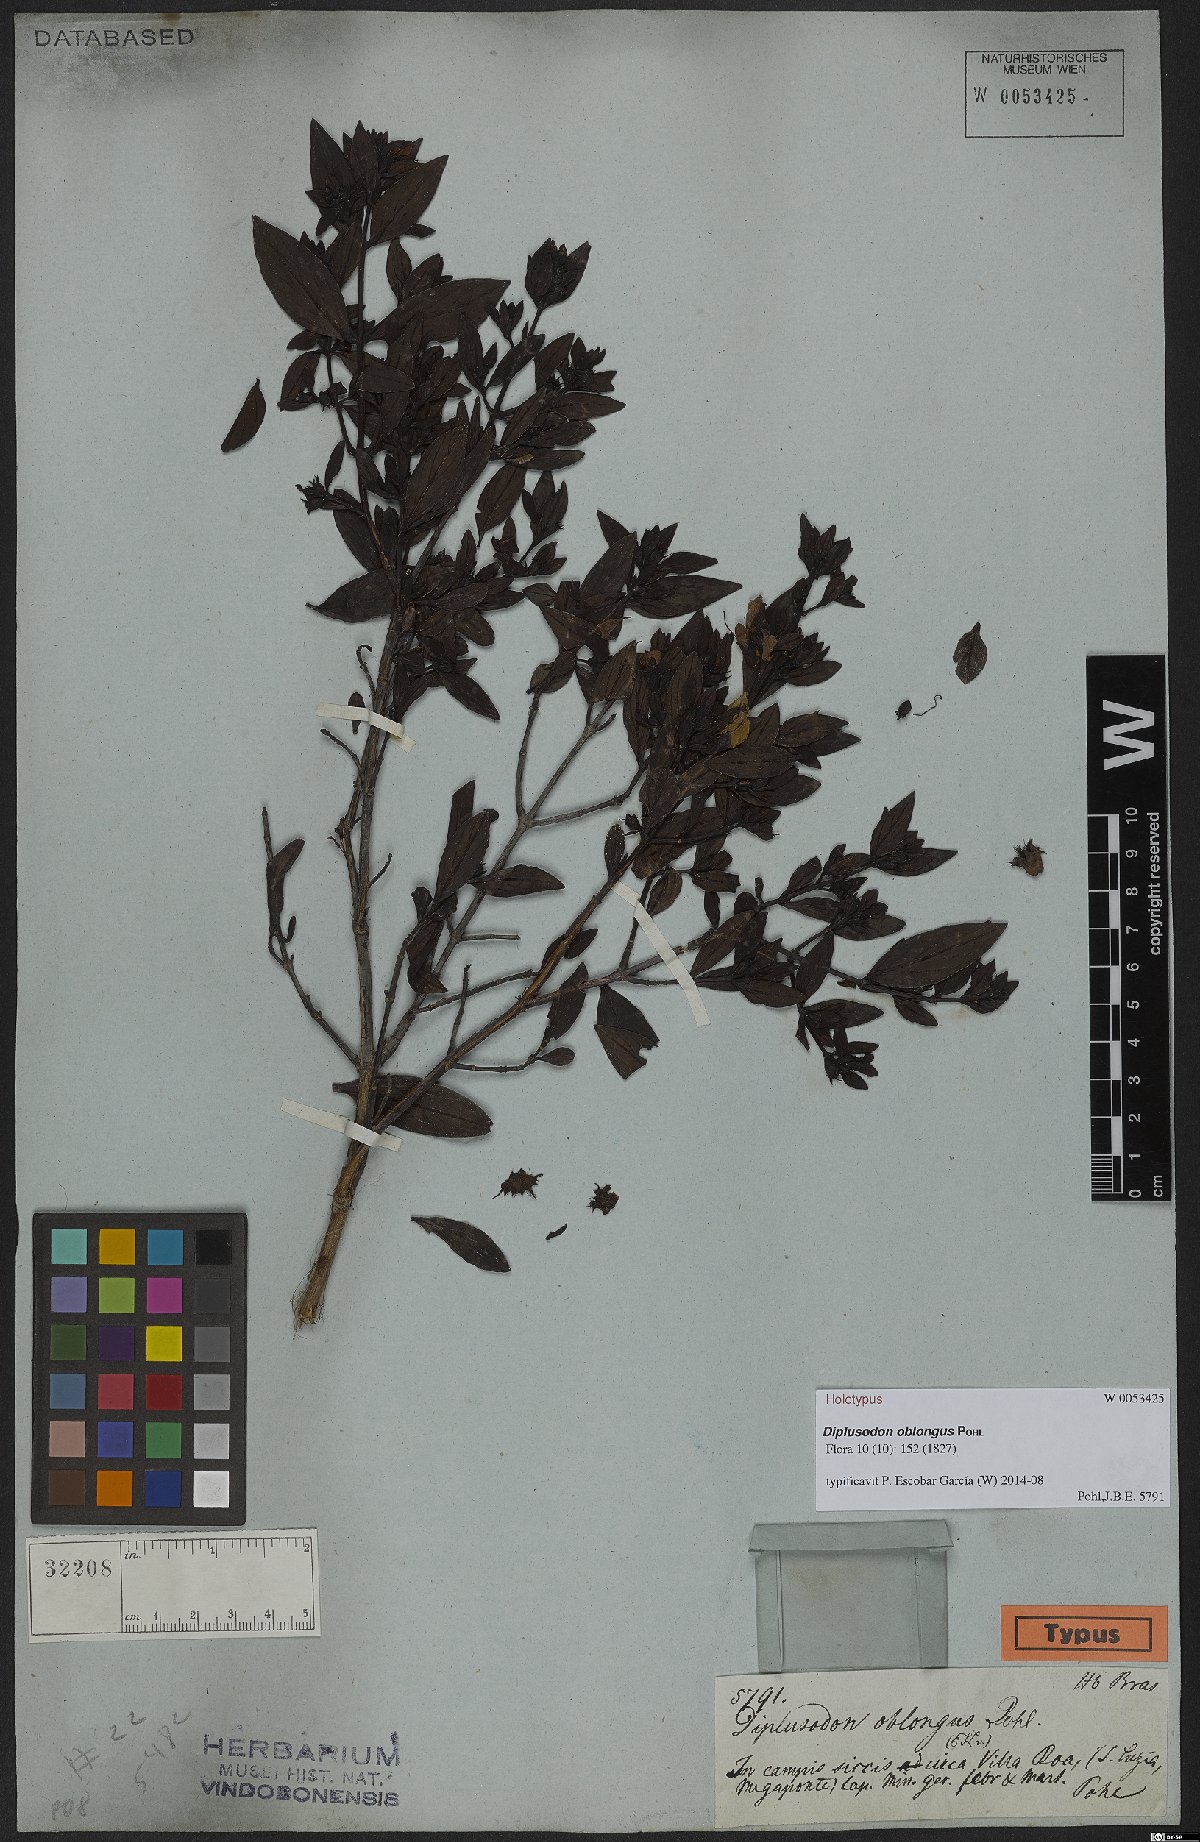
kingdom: Plantae
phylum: Tracheophyta
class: Magnoliopsida
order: Myrtales
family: Lythraceae
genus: Diplusodon
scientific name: Diplusodon oblongus
